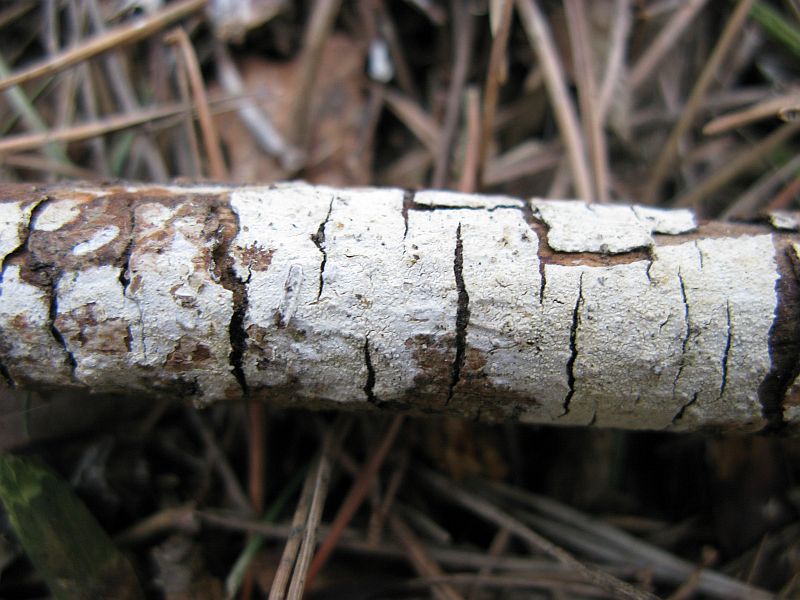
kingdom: Fungi
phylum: Basidiomycota
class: Agaricomycetes
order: Corticiales
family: Corticiaceae
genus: Lyomyces
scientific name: Lyomyces crustosus
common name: vortet hyldehinde
